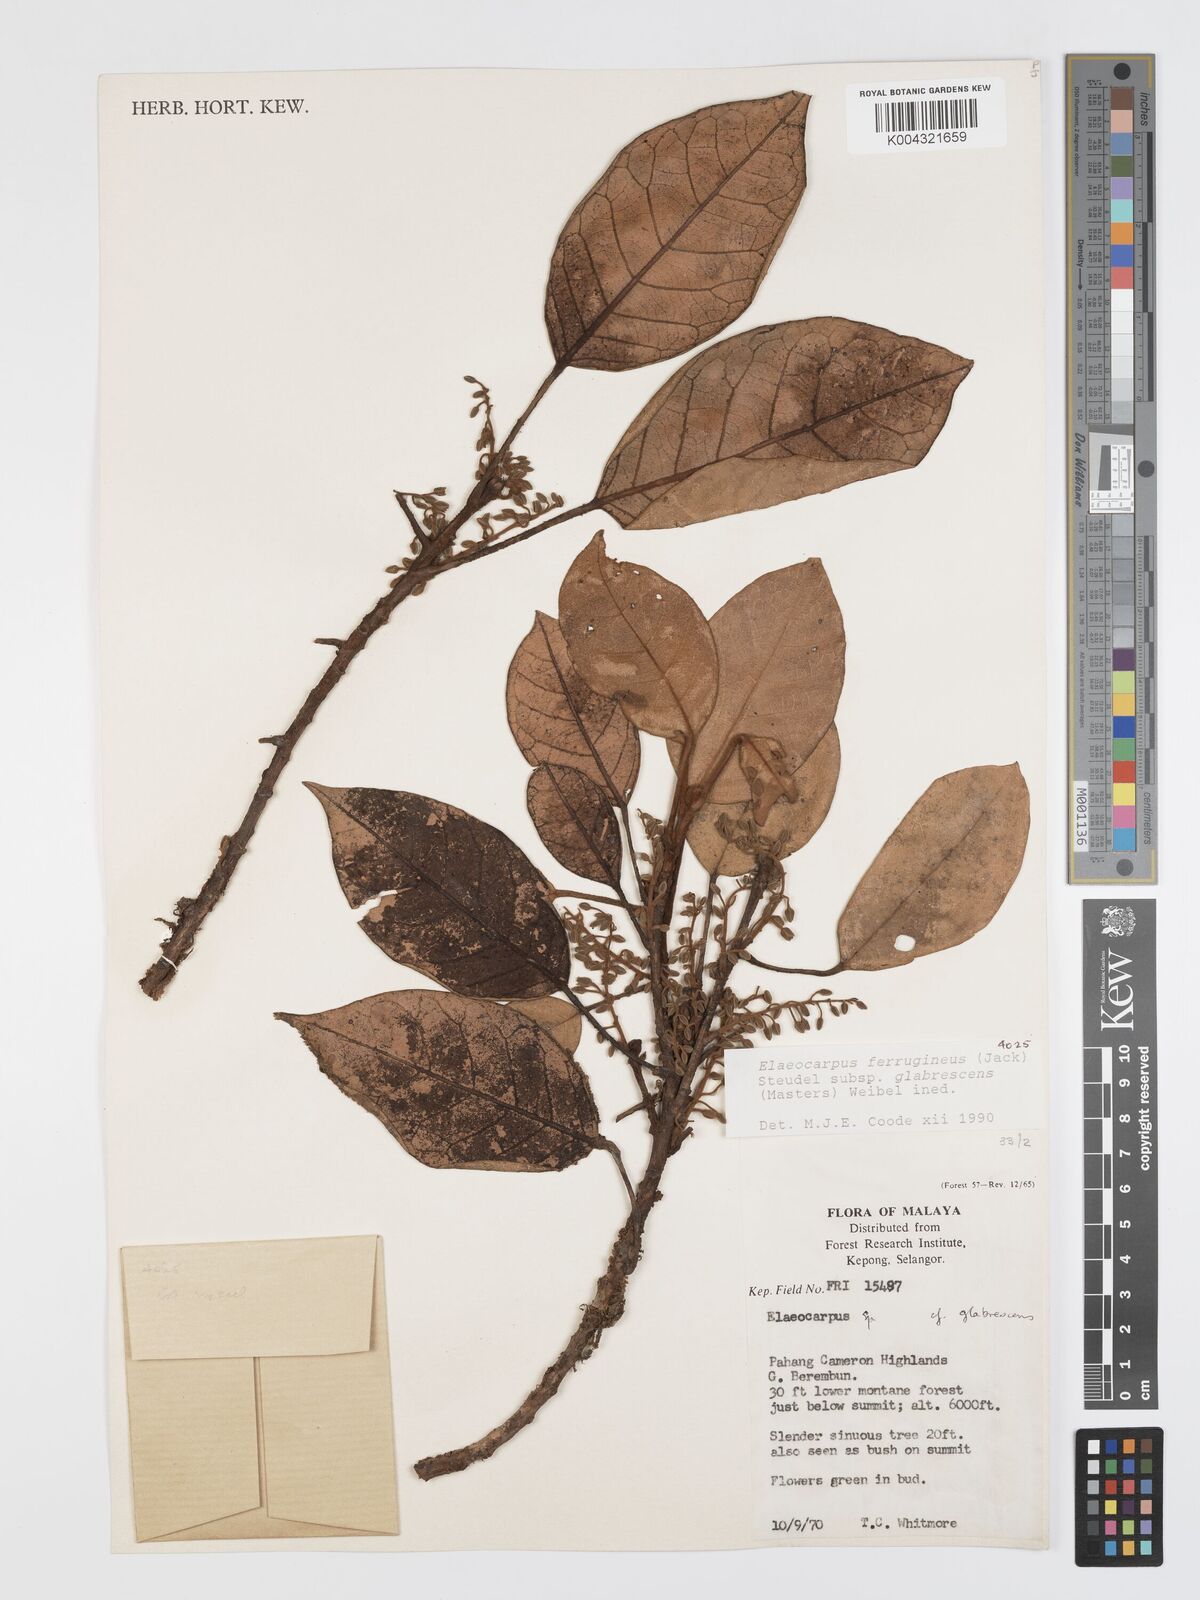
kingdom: Plantae
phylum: Tracheophyta
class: Magnoliopsida
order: Oxalidales
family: Elaeocarpaceae
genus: Elaeocarpus
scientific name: Elaeocarpus ferrugineus
